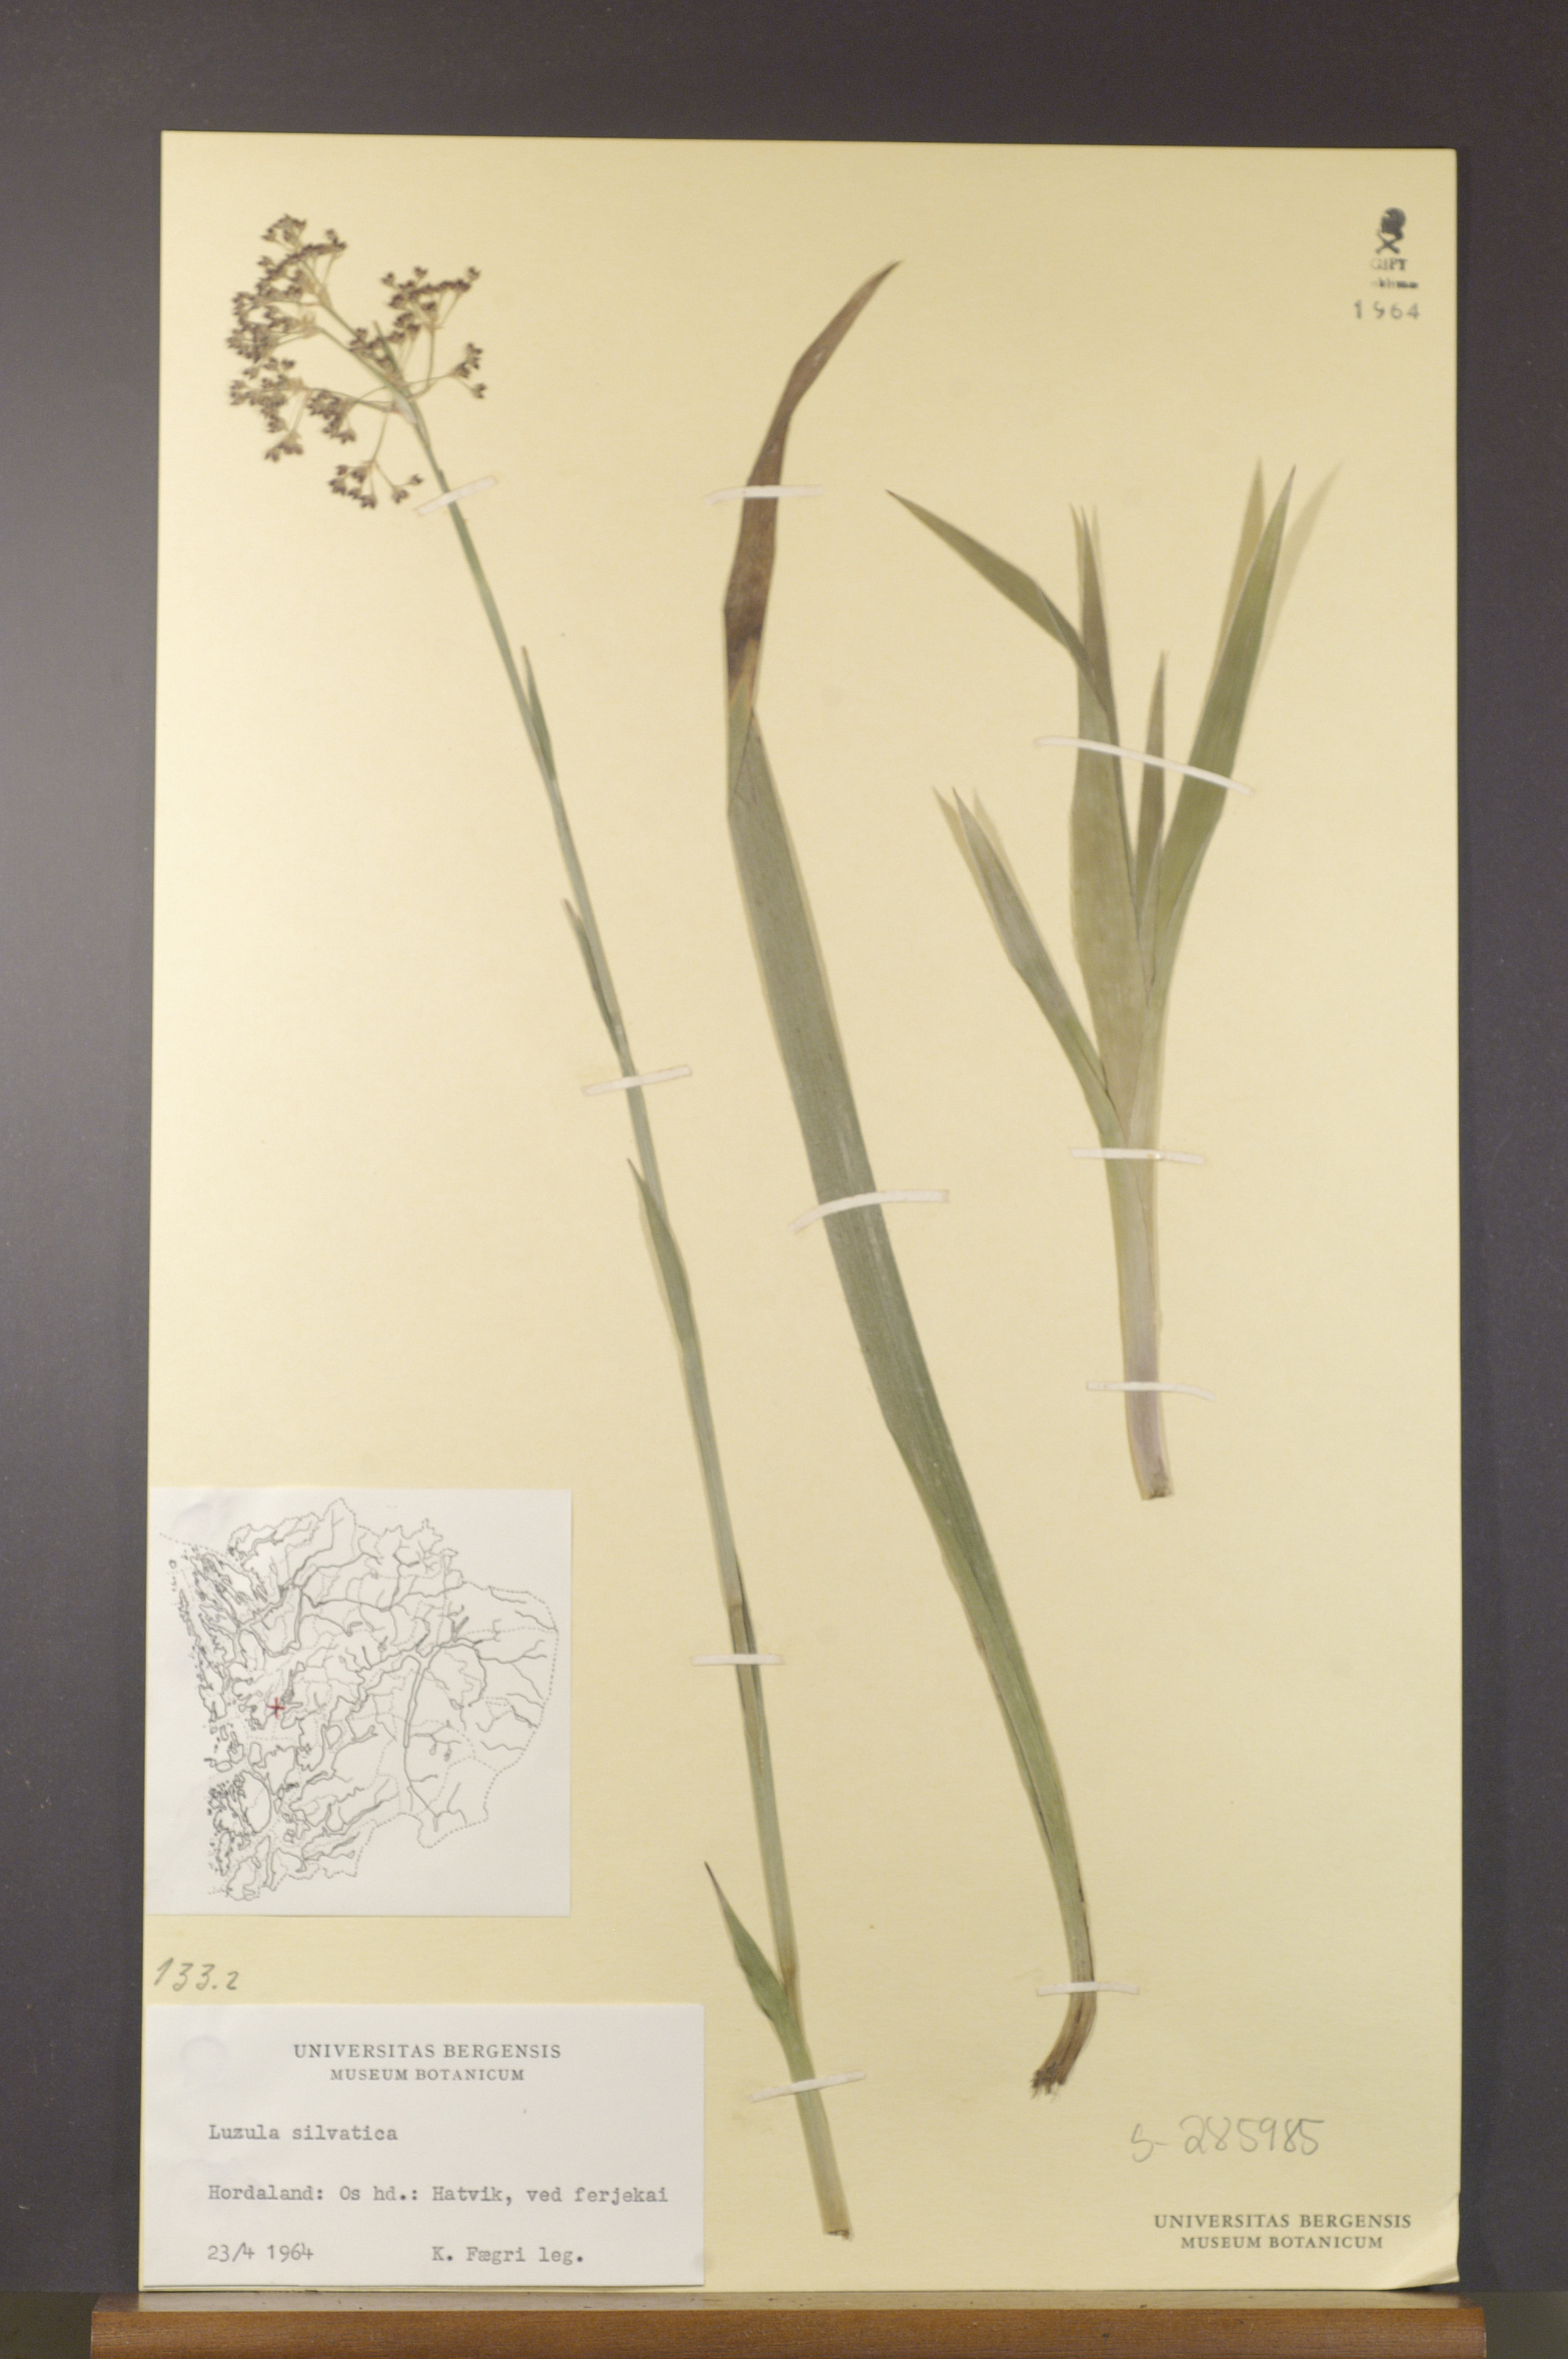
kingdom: Plantae
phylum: Tracheophyta
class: Liliopsida
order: Poales
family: Juncaceae
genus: Luzula
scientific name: Luzula sylvatica
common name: Great wood-rush
